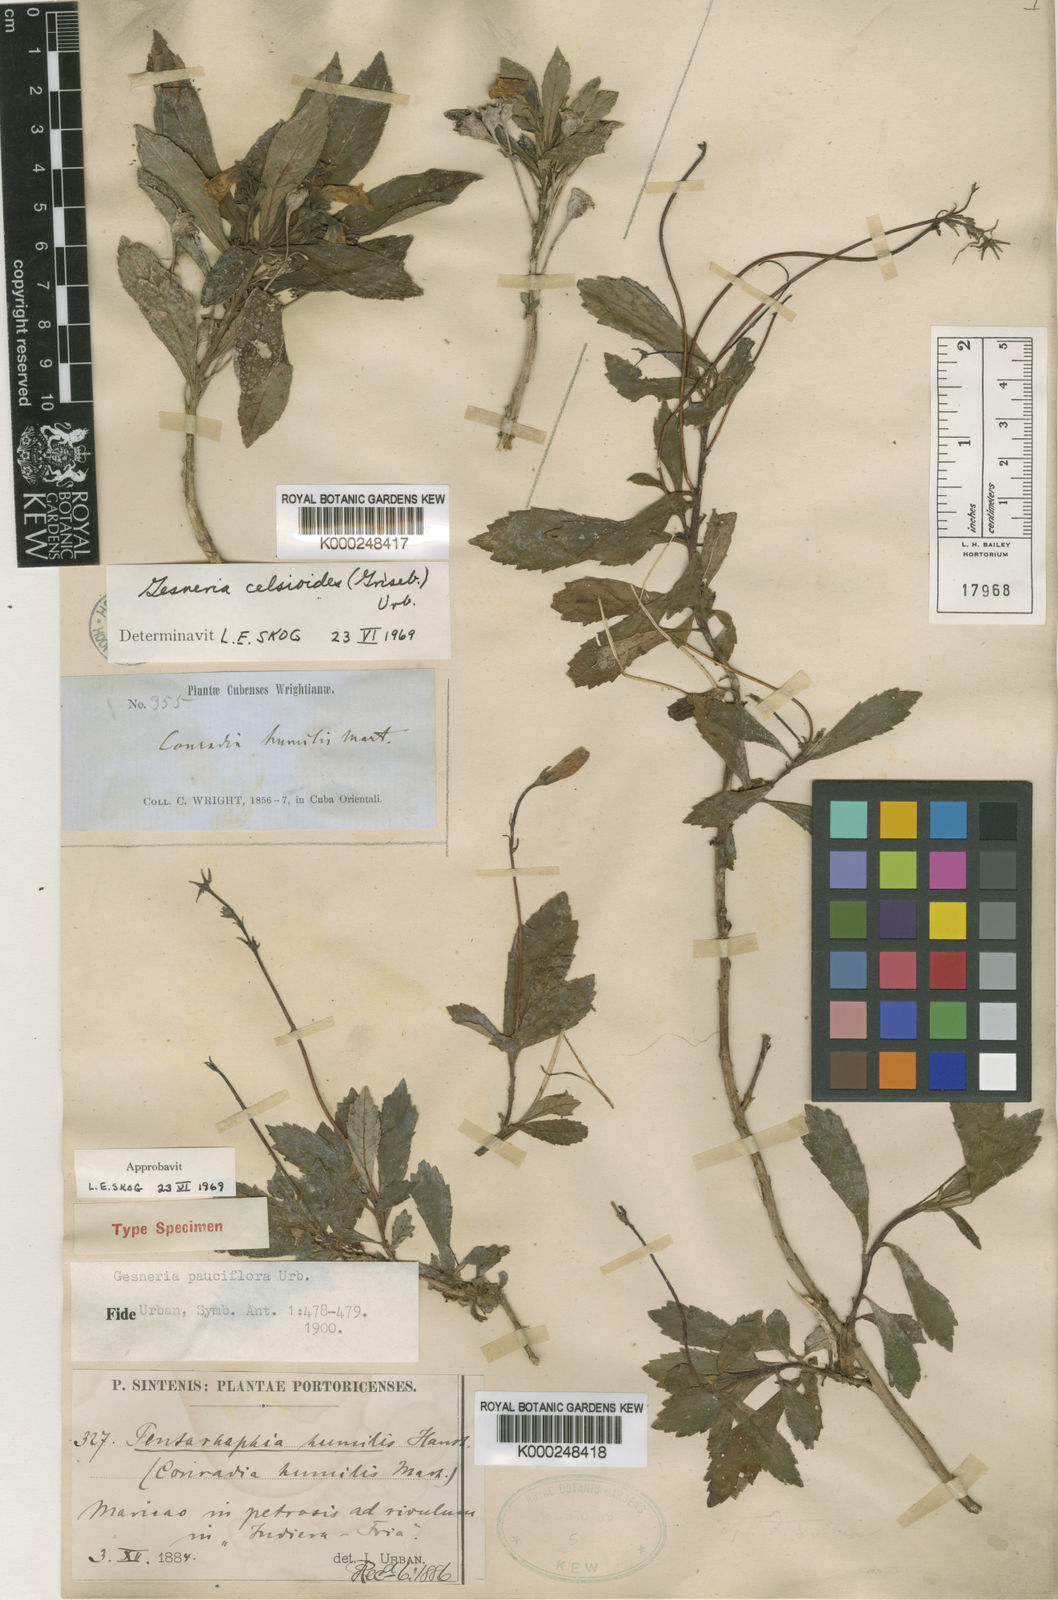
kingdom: Plantae
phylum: Tracheophyta
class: Magnoliopsida
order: Lamiales
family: Gesneriaceae
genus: Gesneria
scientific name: Gesneria pauciflora
